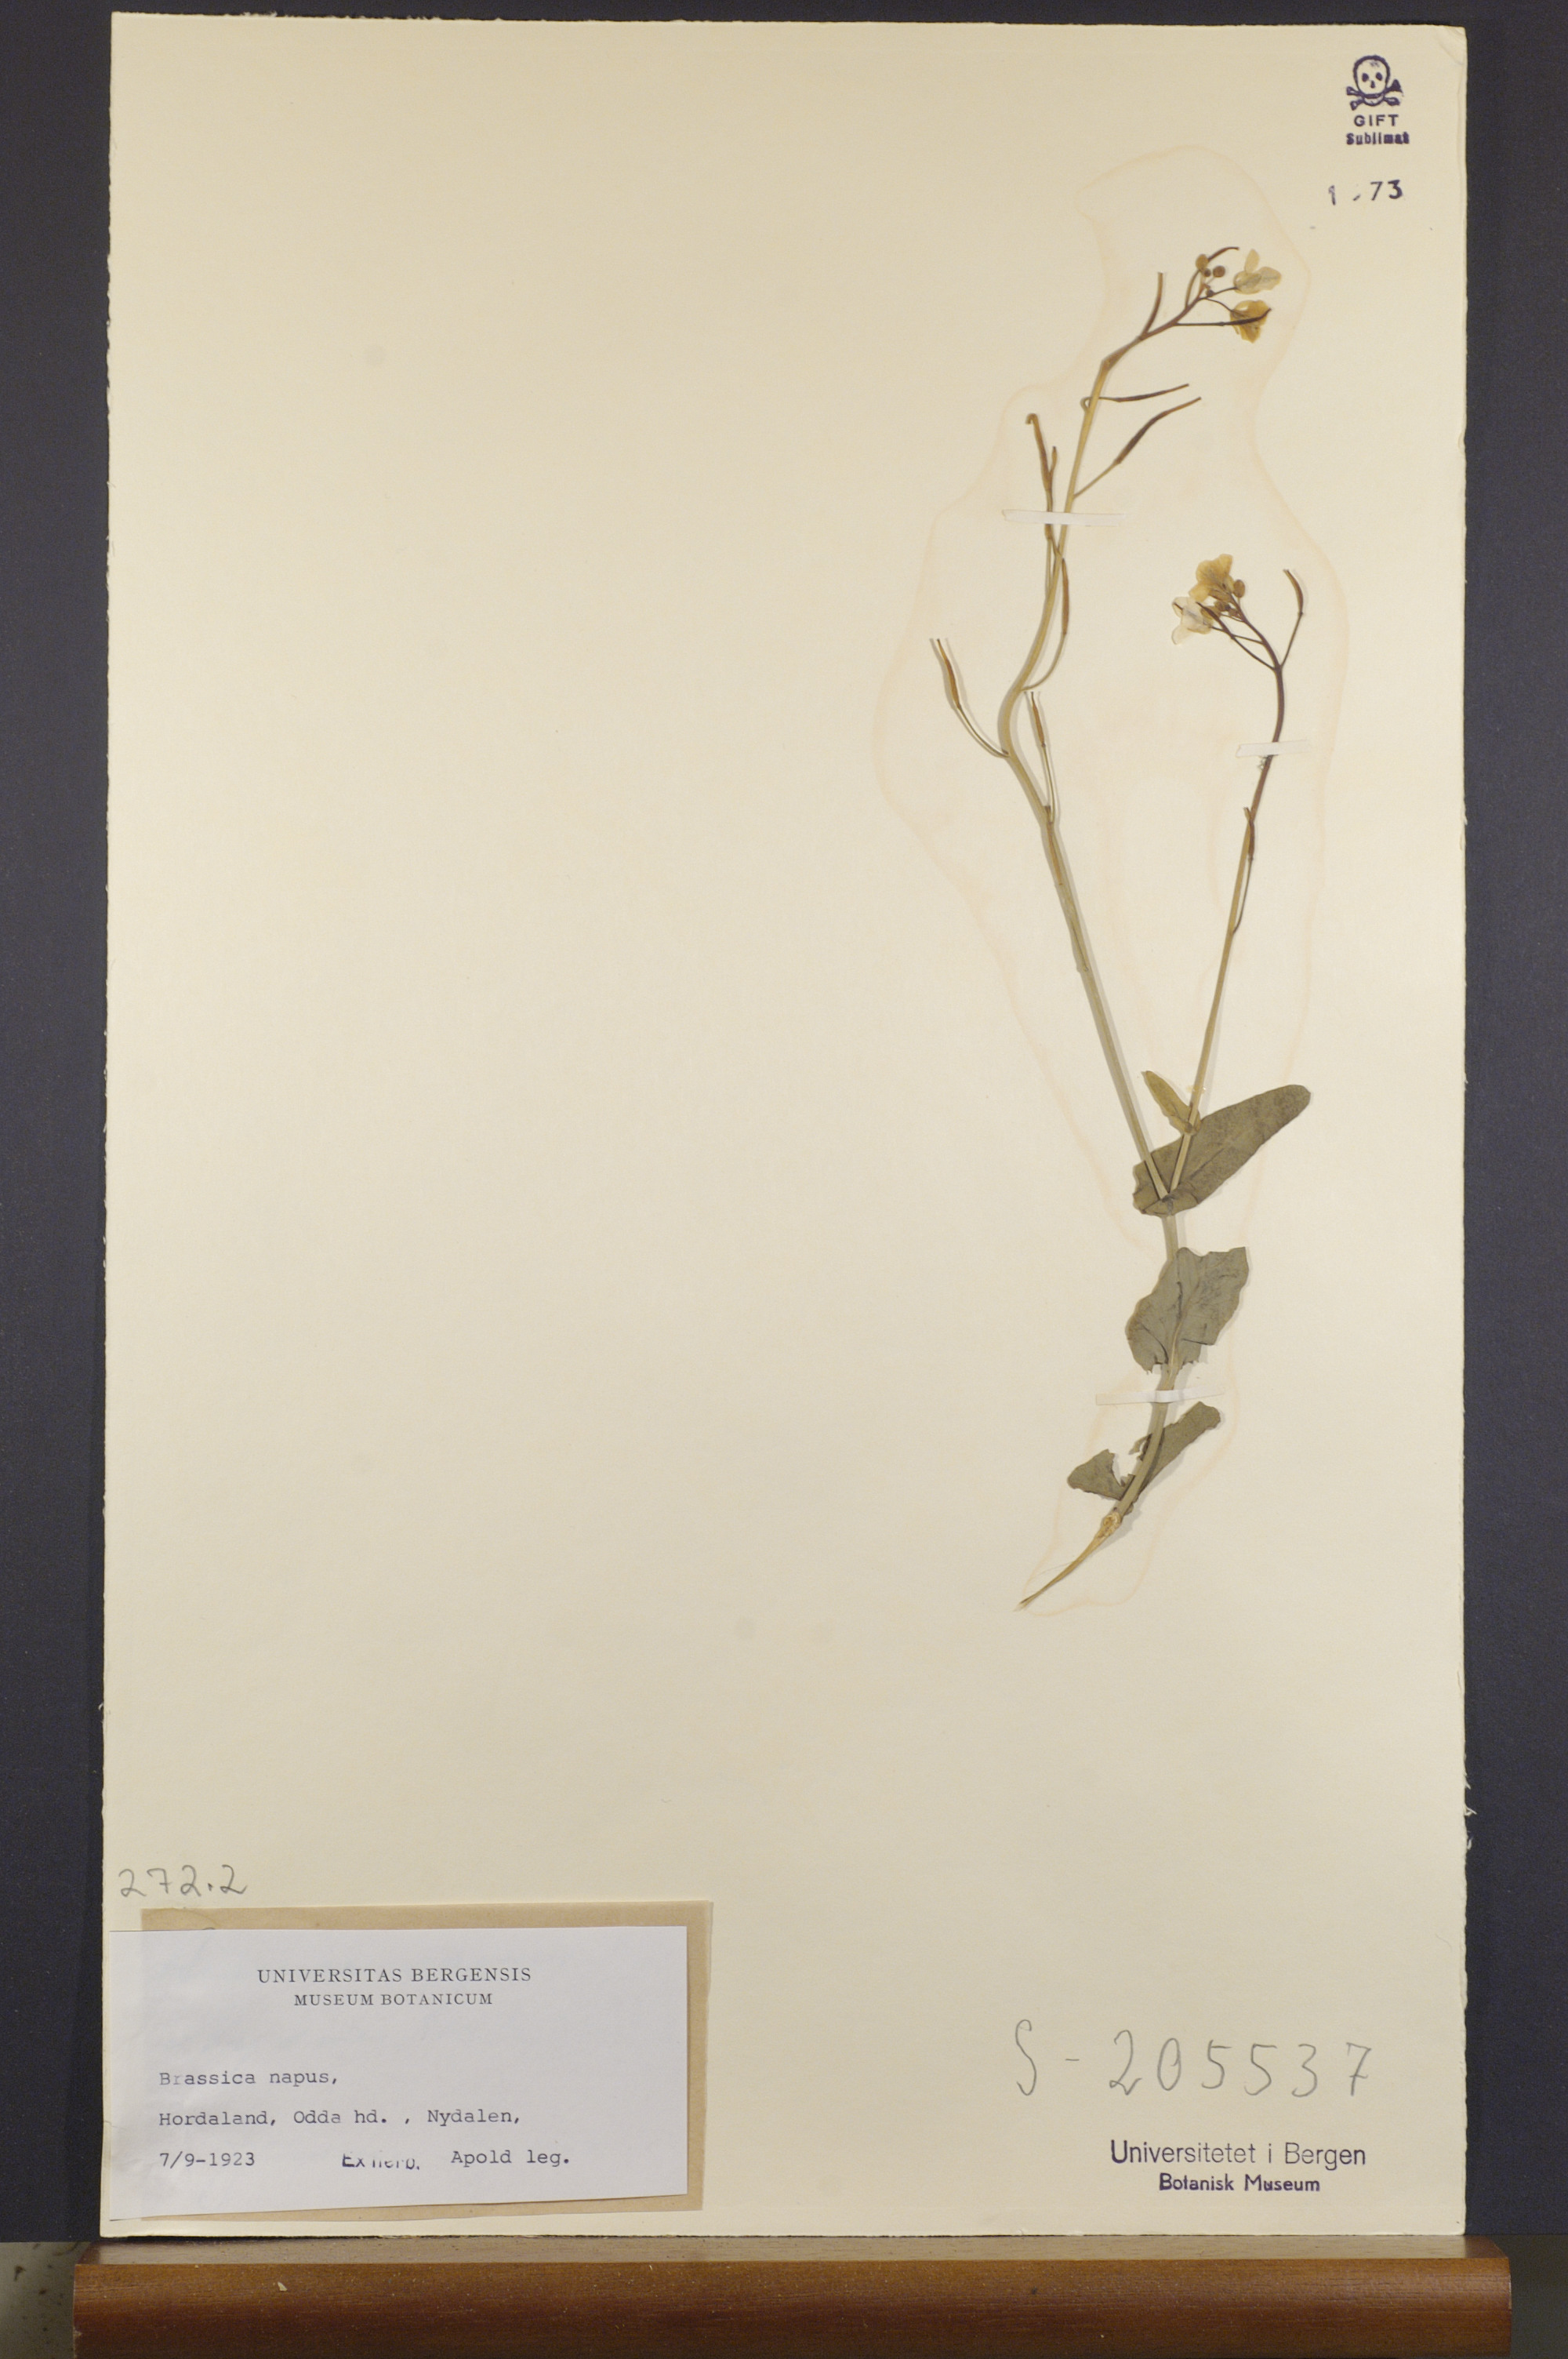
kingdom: Plantae
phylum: Tracheophyta
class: Magnoliopsida
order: Brassicales
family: Brassicaceae
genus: Brassica
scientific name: Brassica napus
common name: Rape
